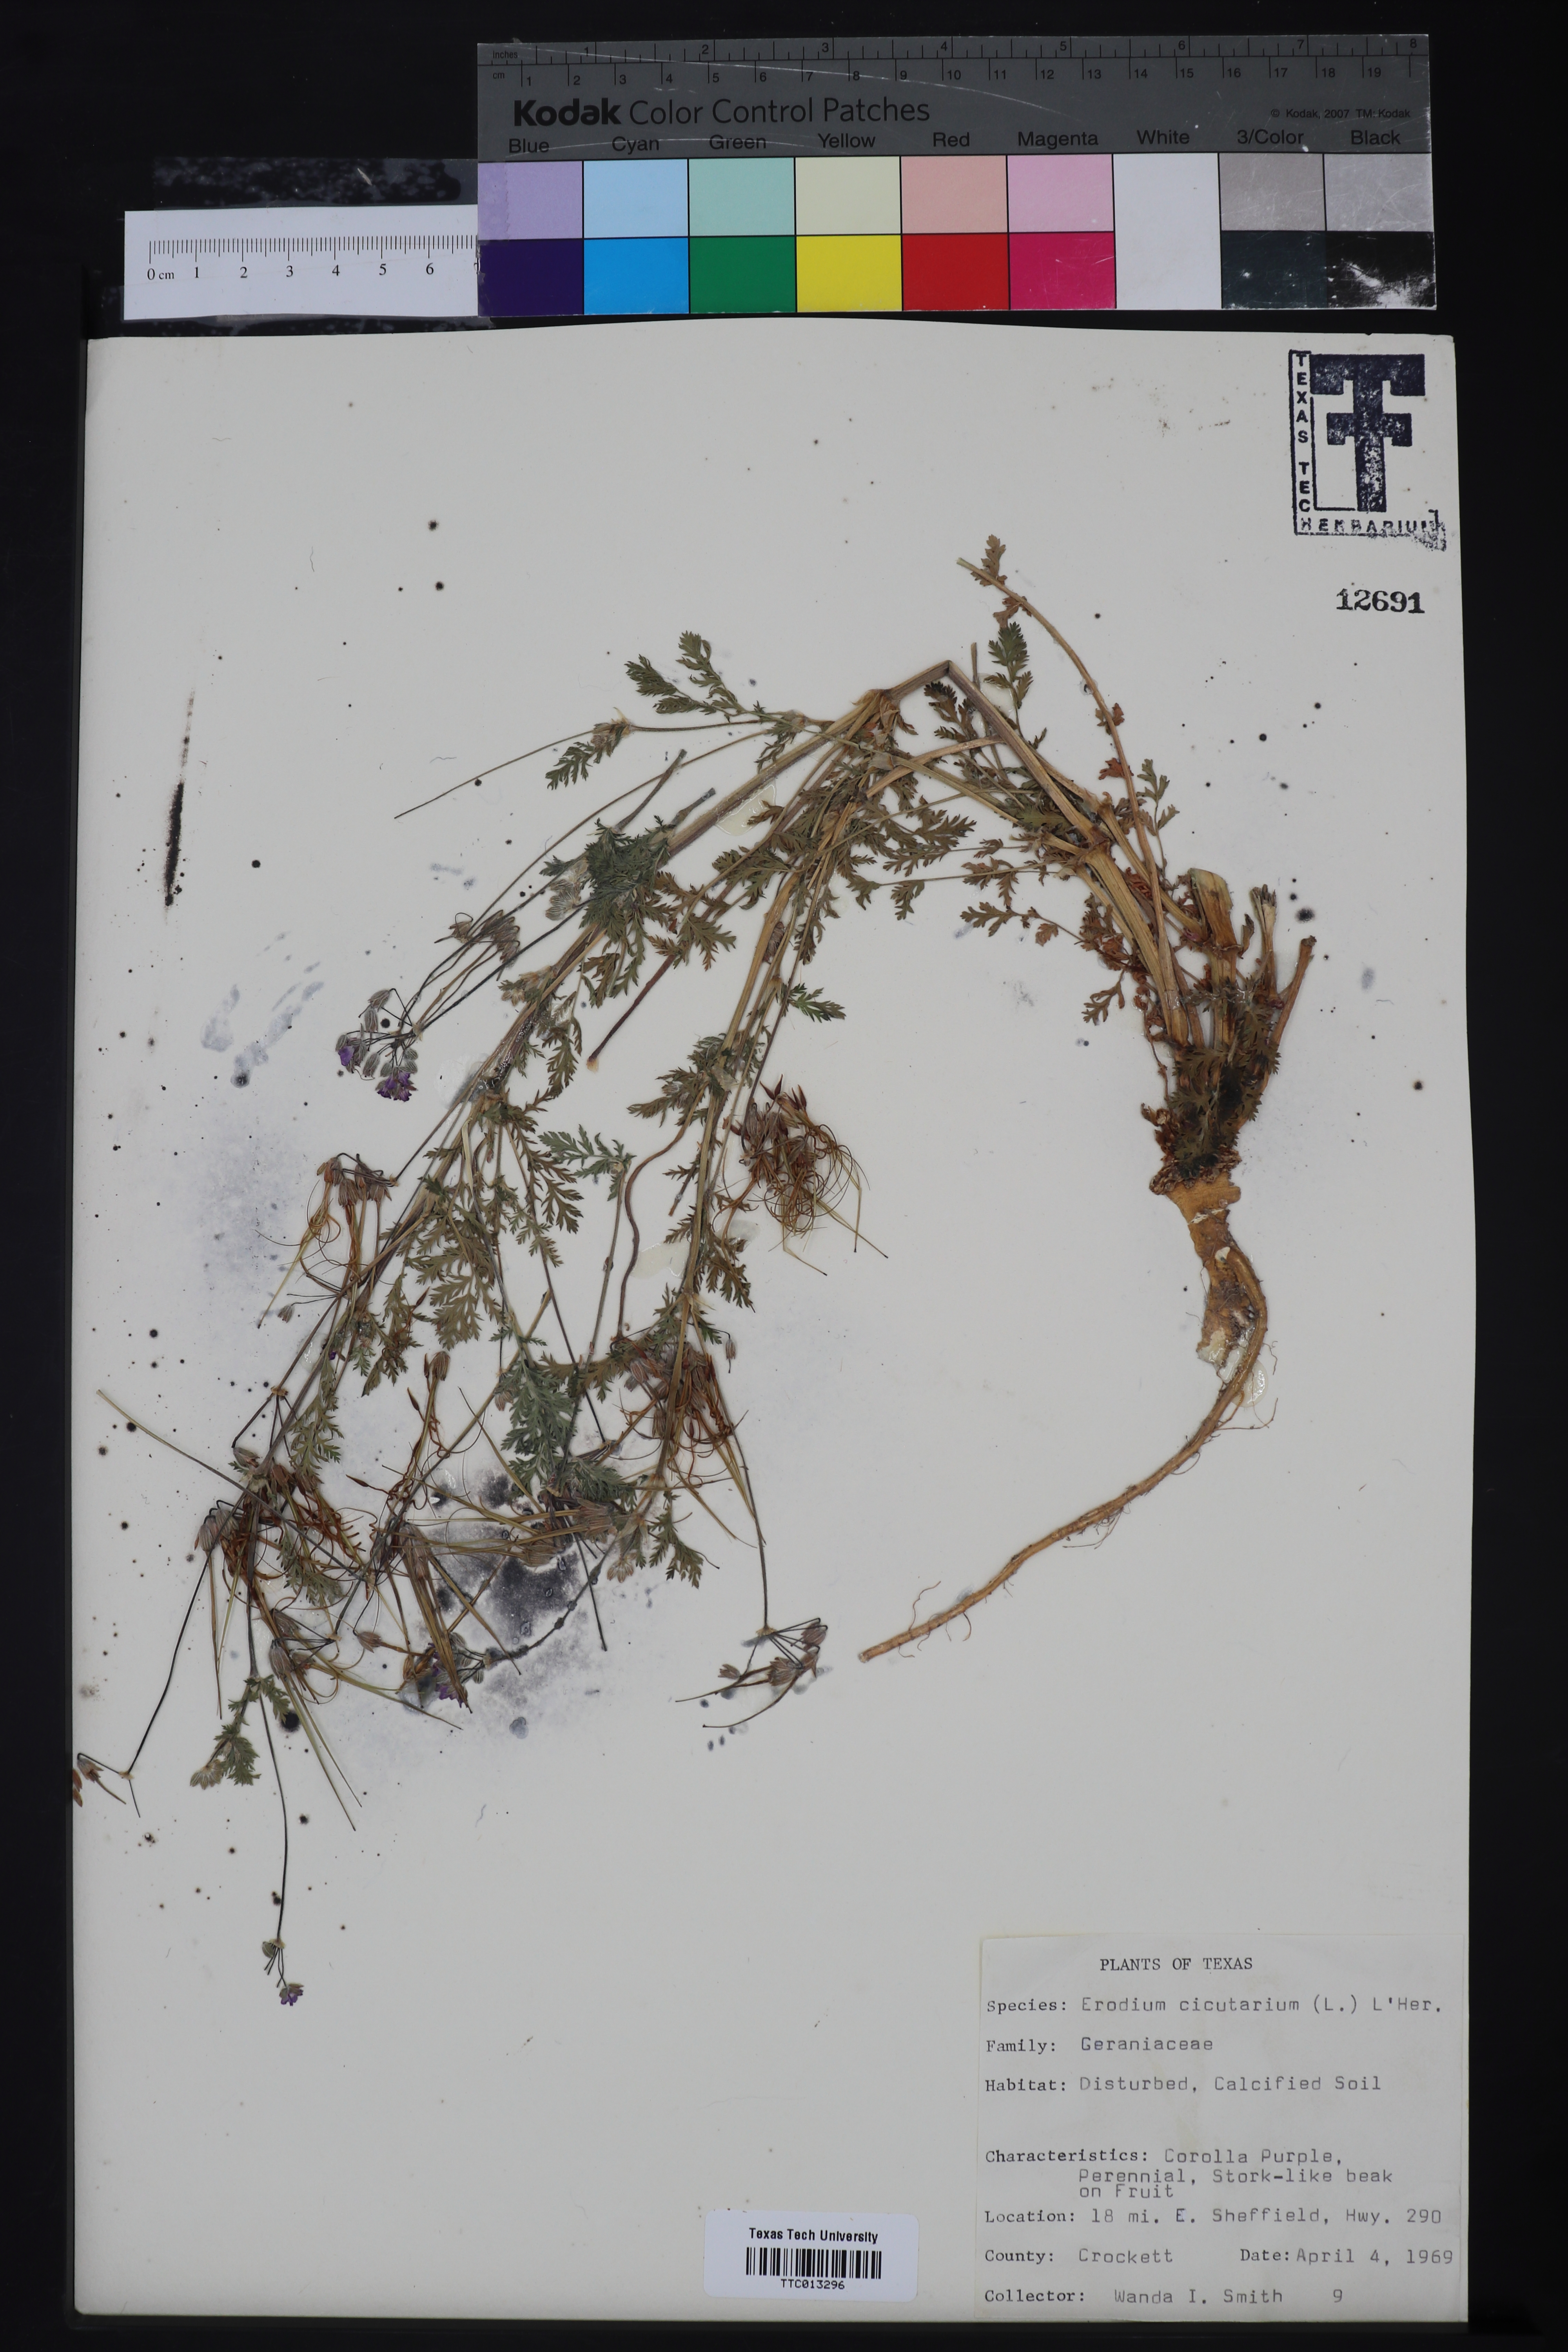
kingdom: Plantae
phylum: Tracheophyta
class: Magnoliopsida
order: Geraniales
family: Geraniaceae
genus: Erodium
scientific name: Erodium cicutarium
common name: Common stork's-bill
